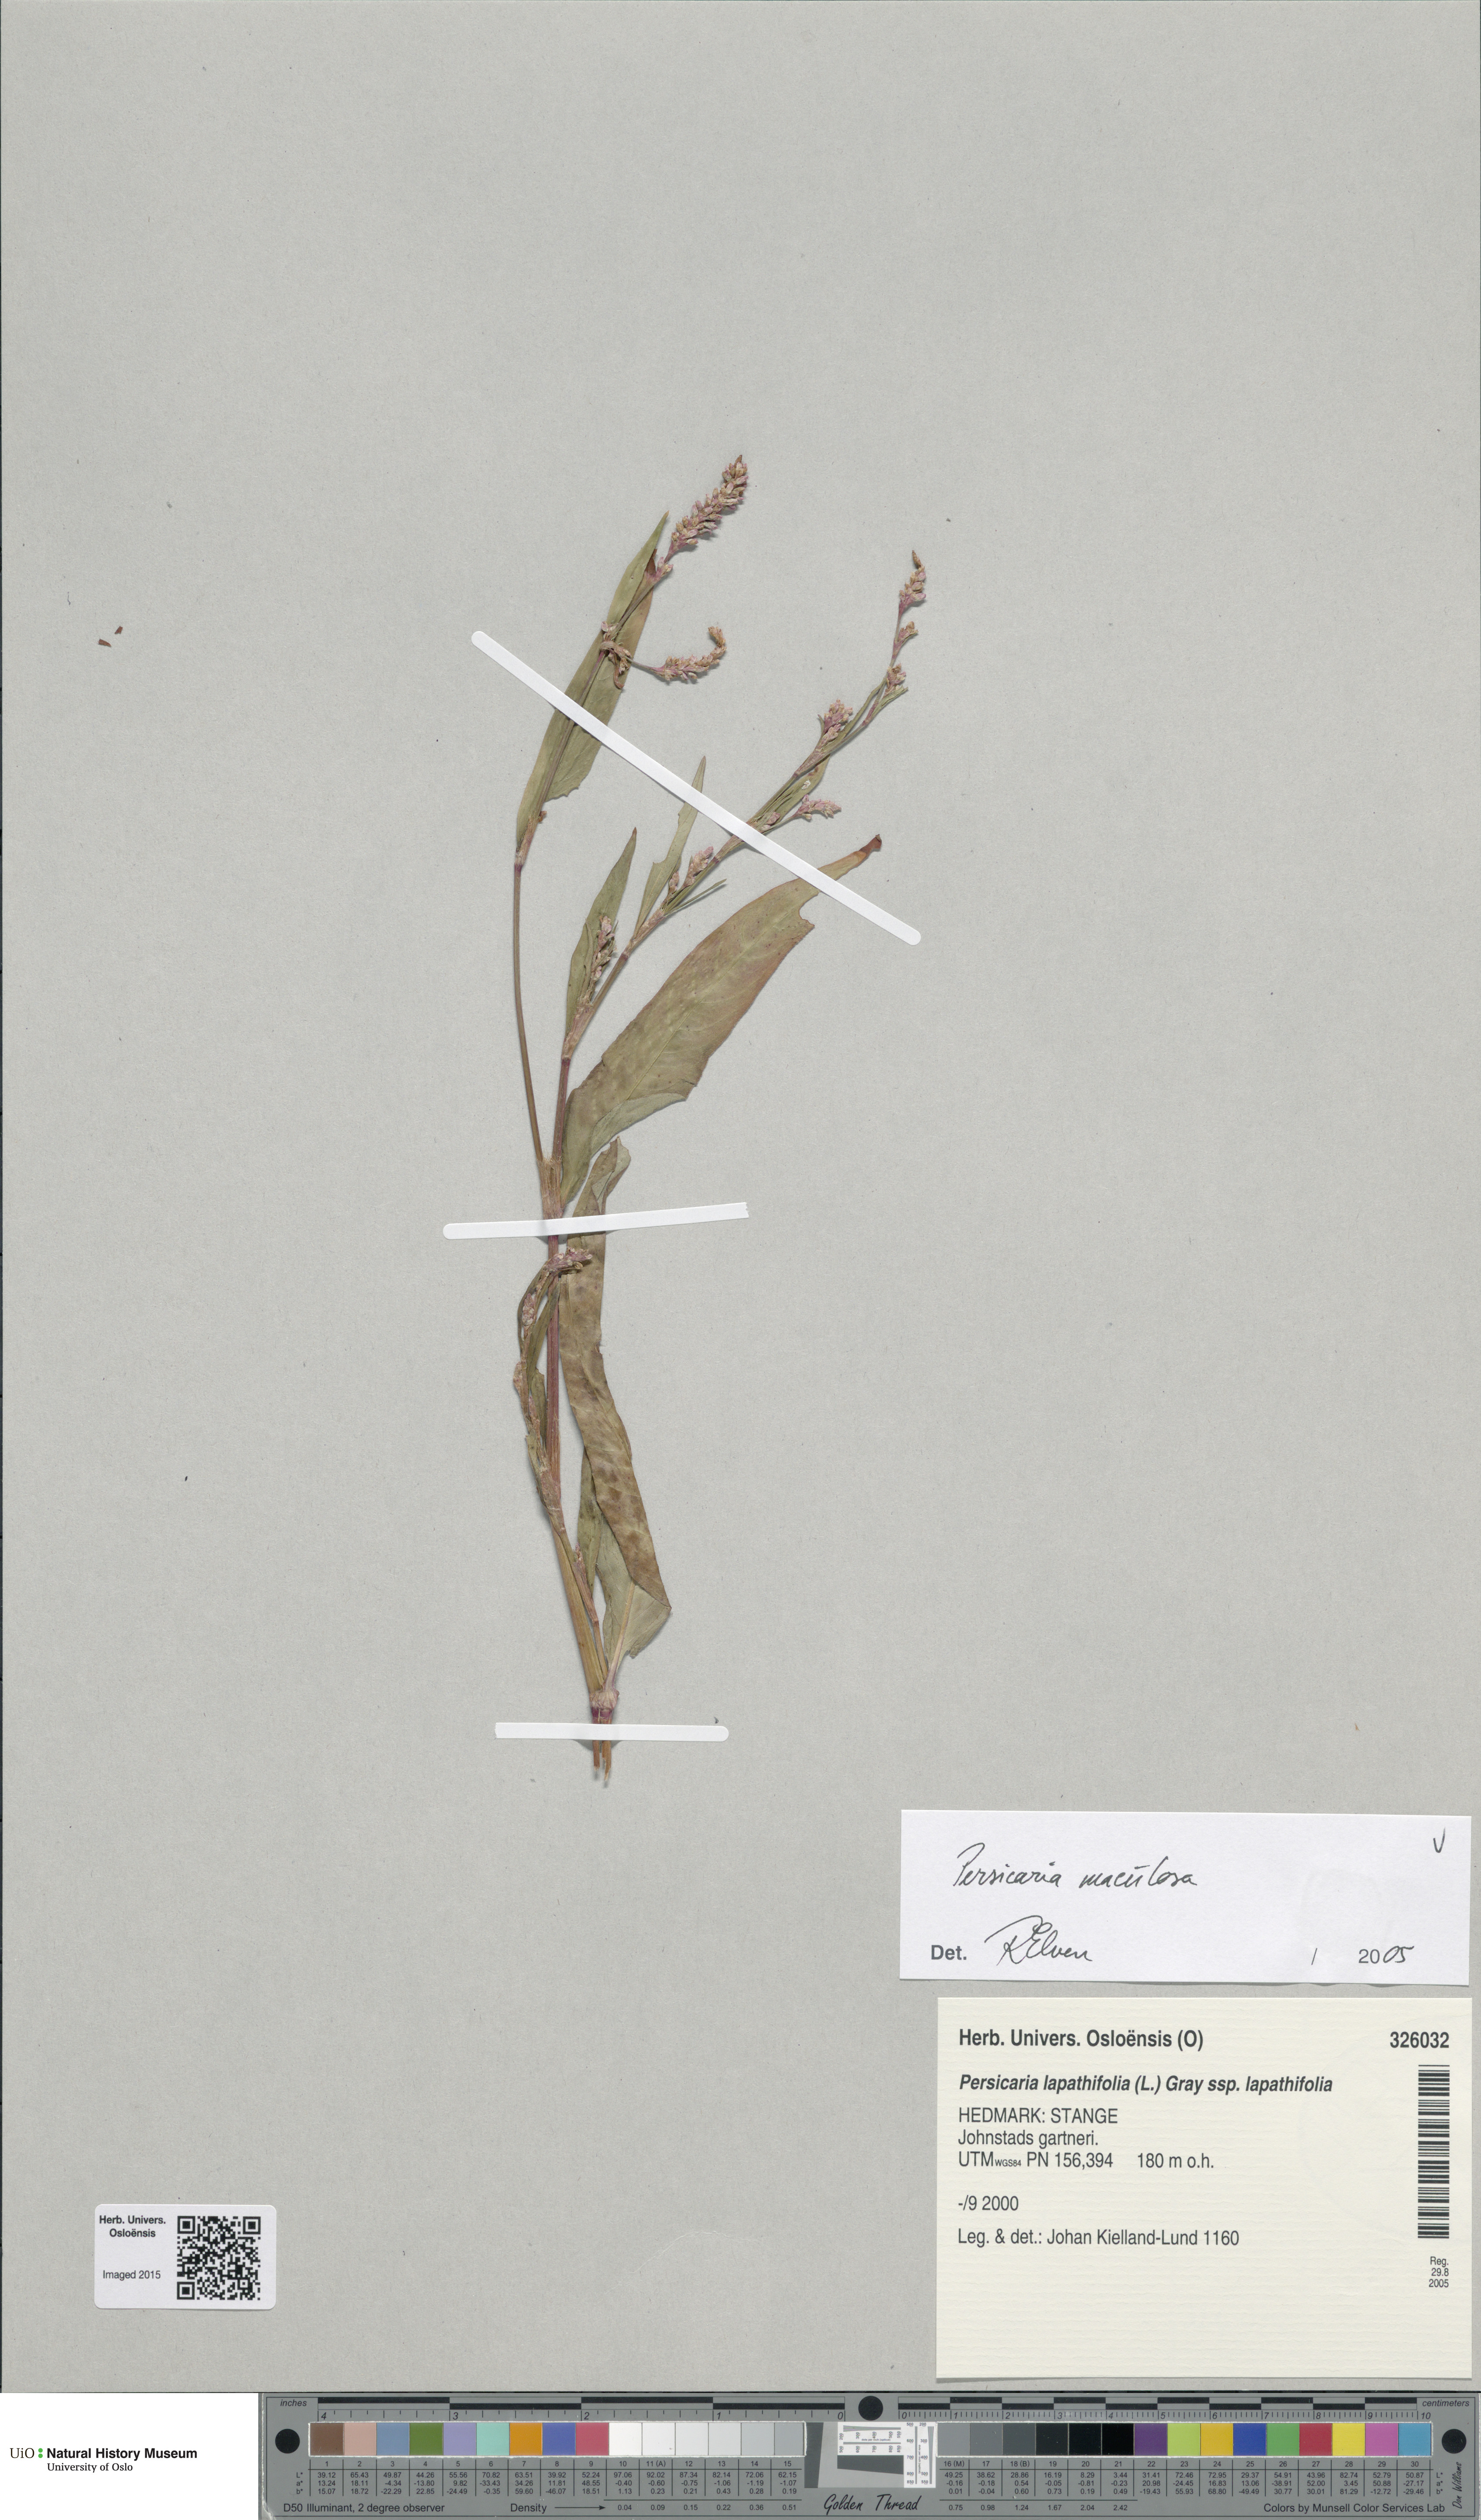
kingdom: Plantae
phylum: Tracheophyta
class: Magnoliopsida
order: Caryophyllales
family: Polygonaceae
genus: Persicaria
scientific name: Persicaria maculosa
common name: Redshank
